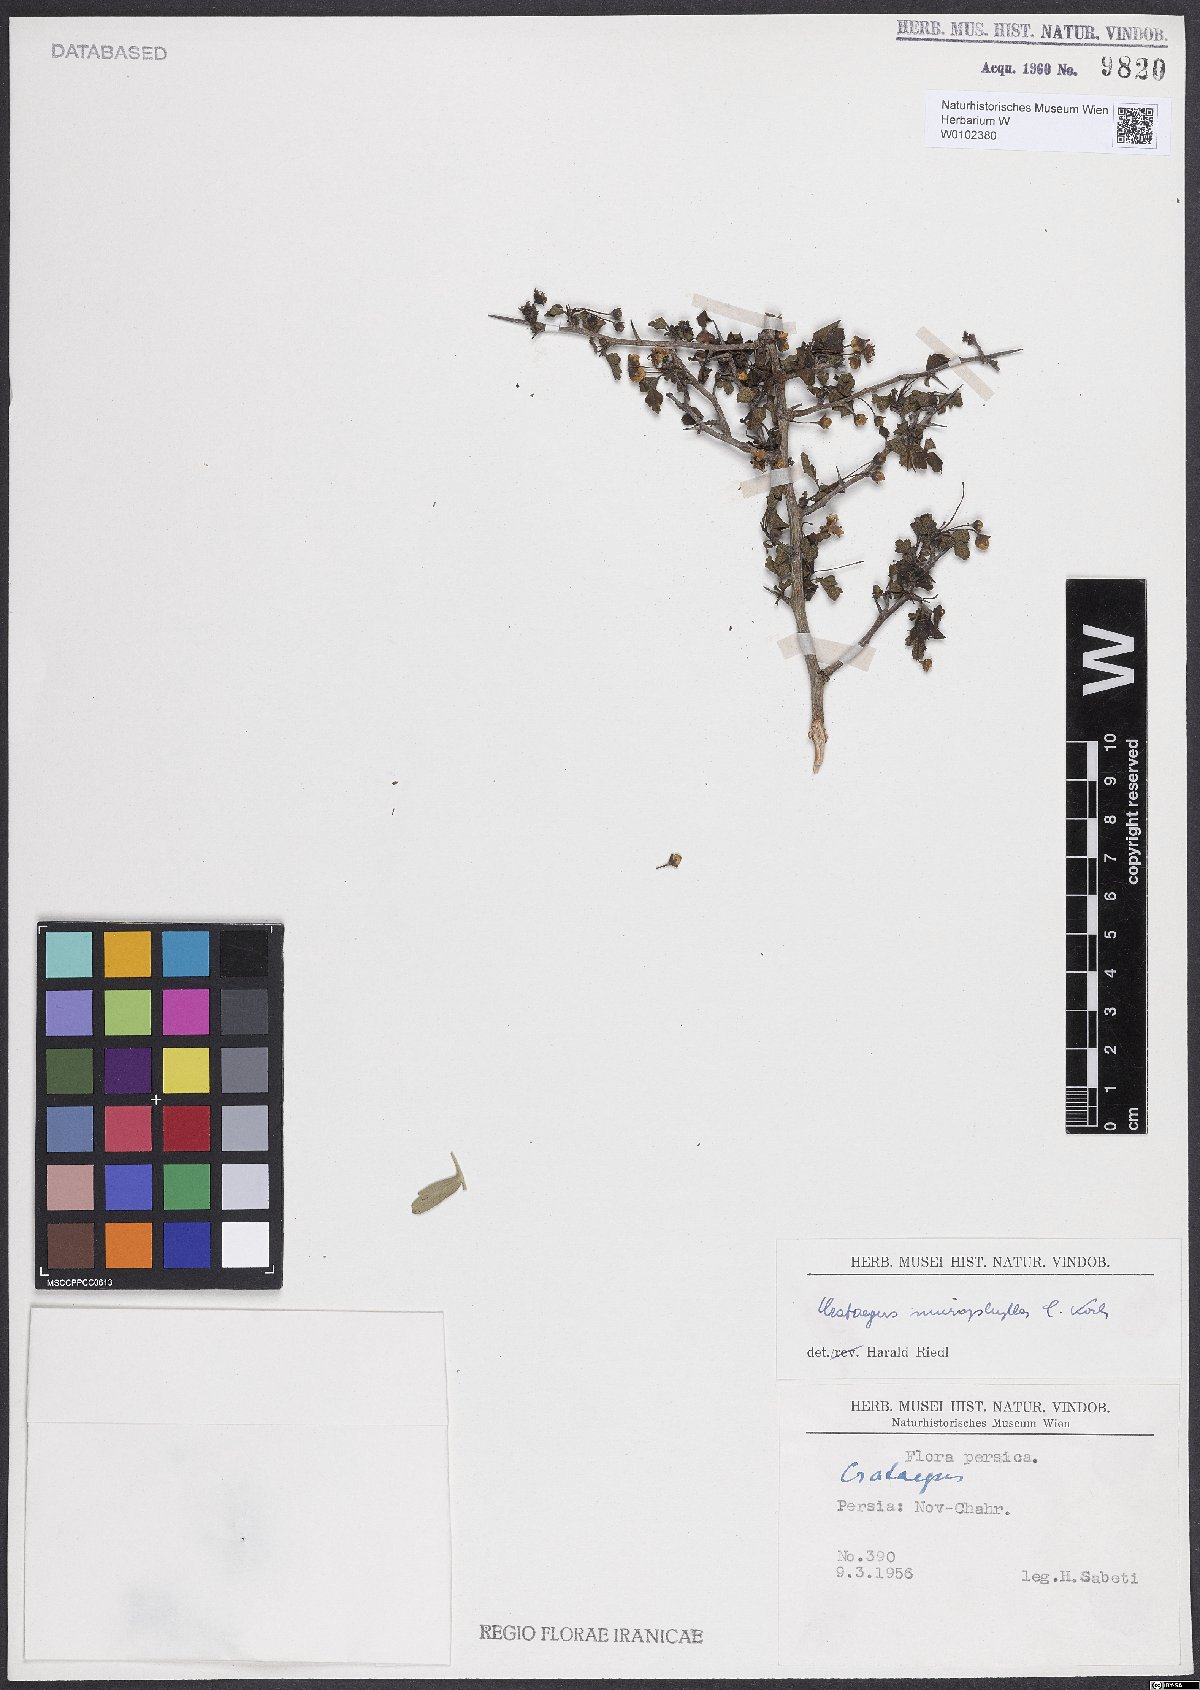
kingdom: Plantae
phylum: Tracheophyta
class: Magnoliopsida
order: Rosales
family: Rosaceae
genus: Crataegus
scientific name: Crataegus microphylla
